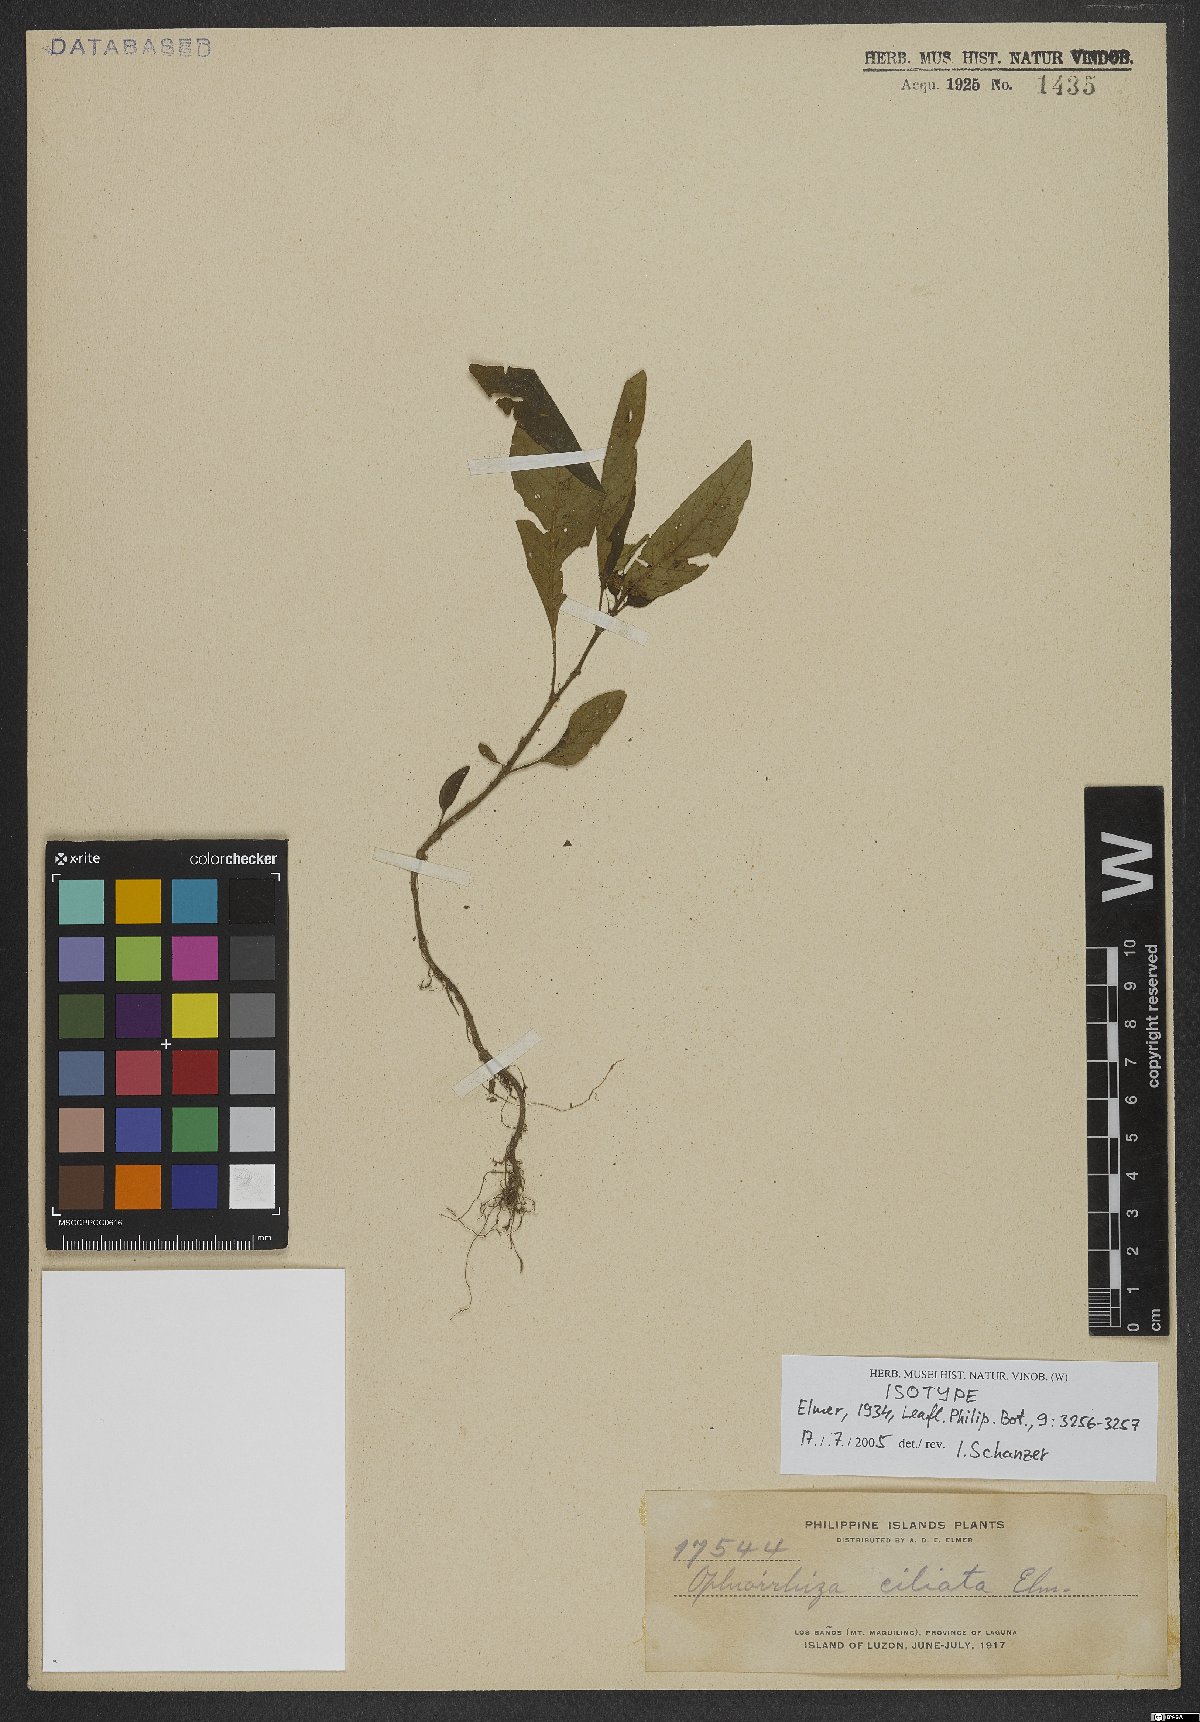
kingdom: Plantae
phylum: Tracheophyta
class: Magnoliopsida
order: Gentianales
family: Rubiaceae
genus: Ophiorrhiza
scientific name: Ophiorrhiza ciliata
